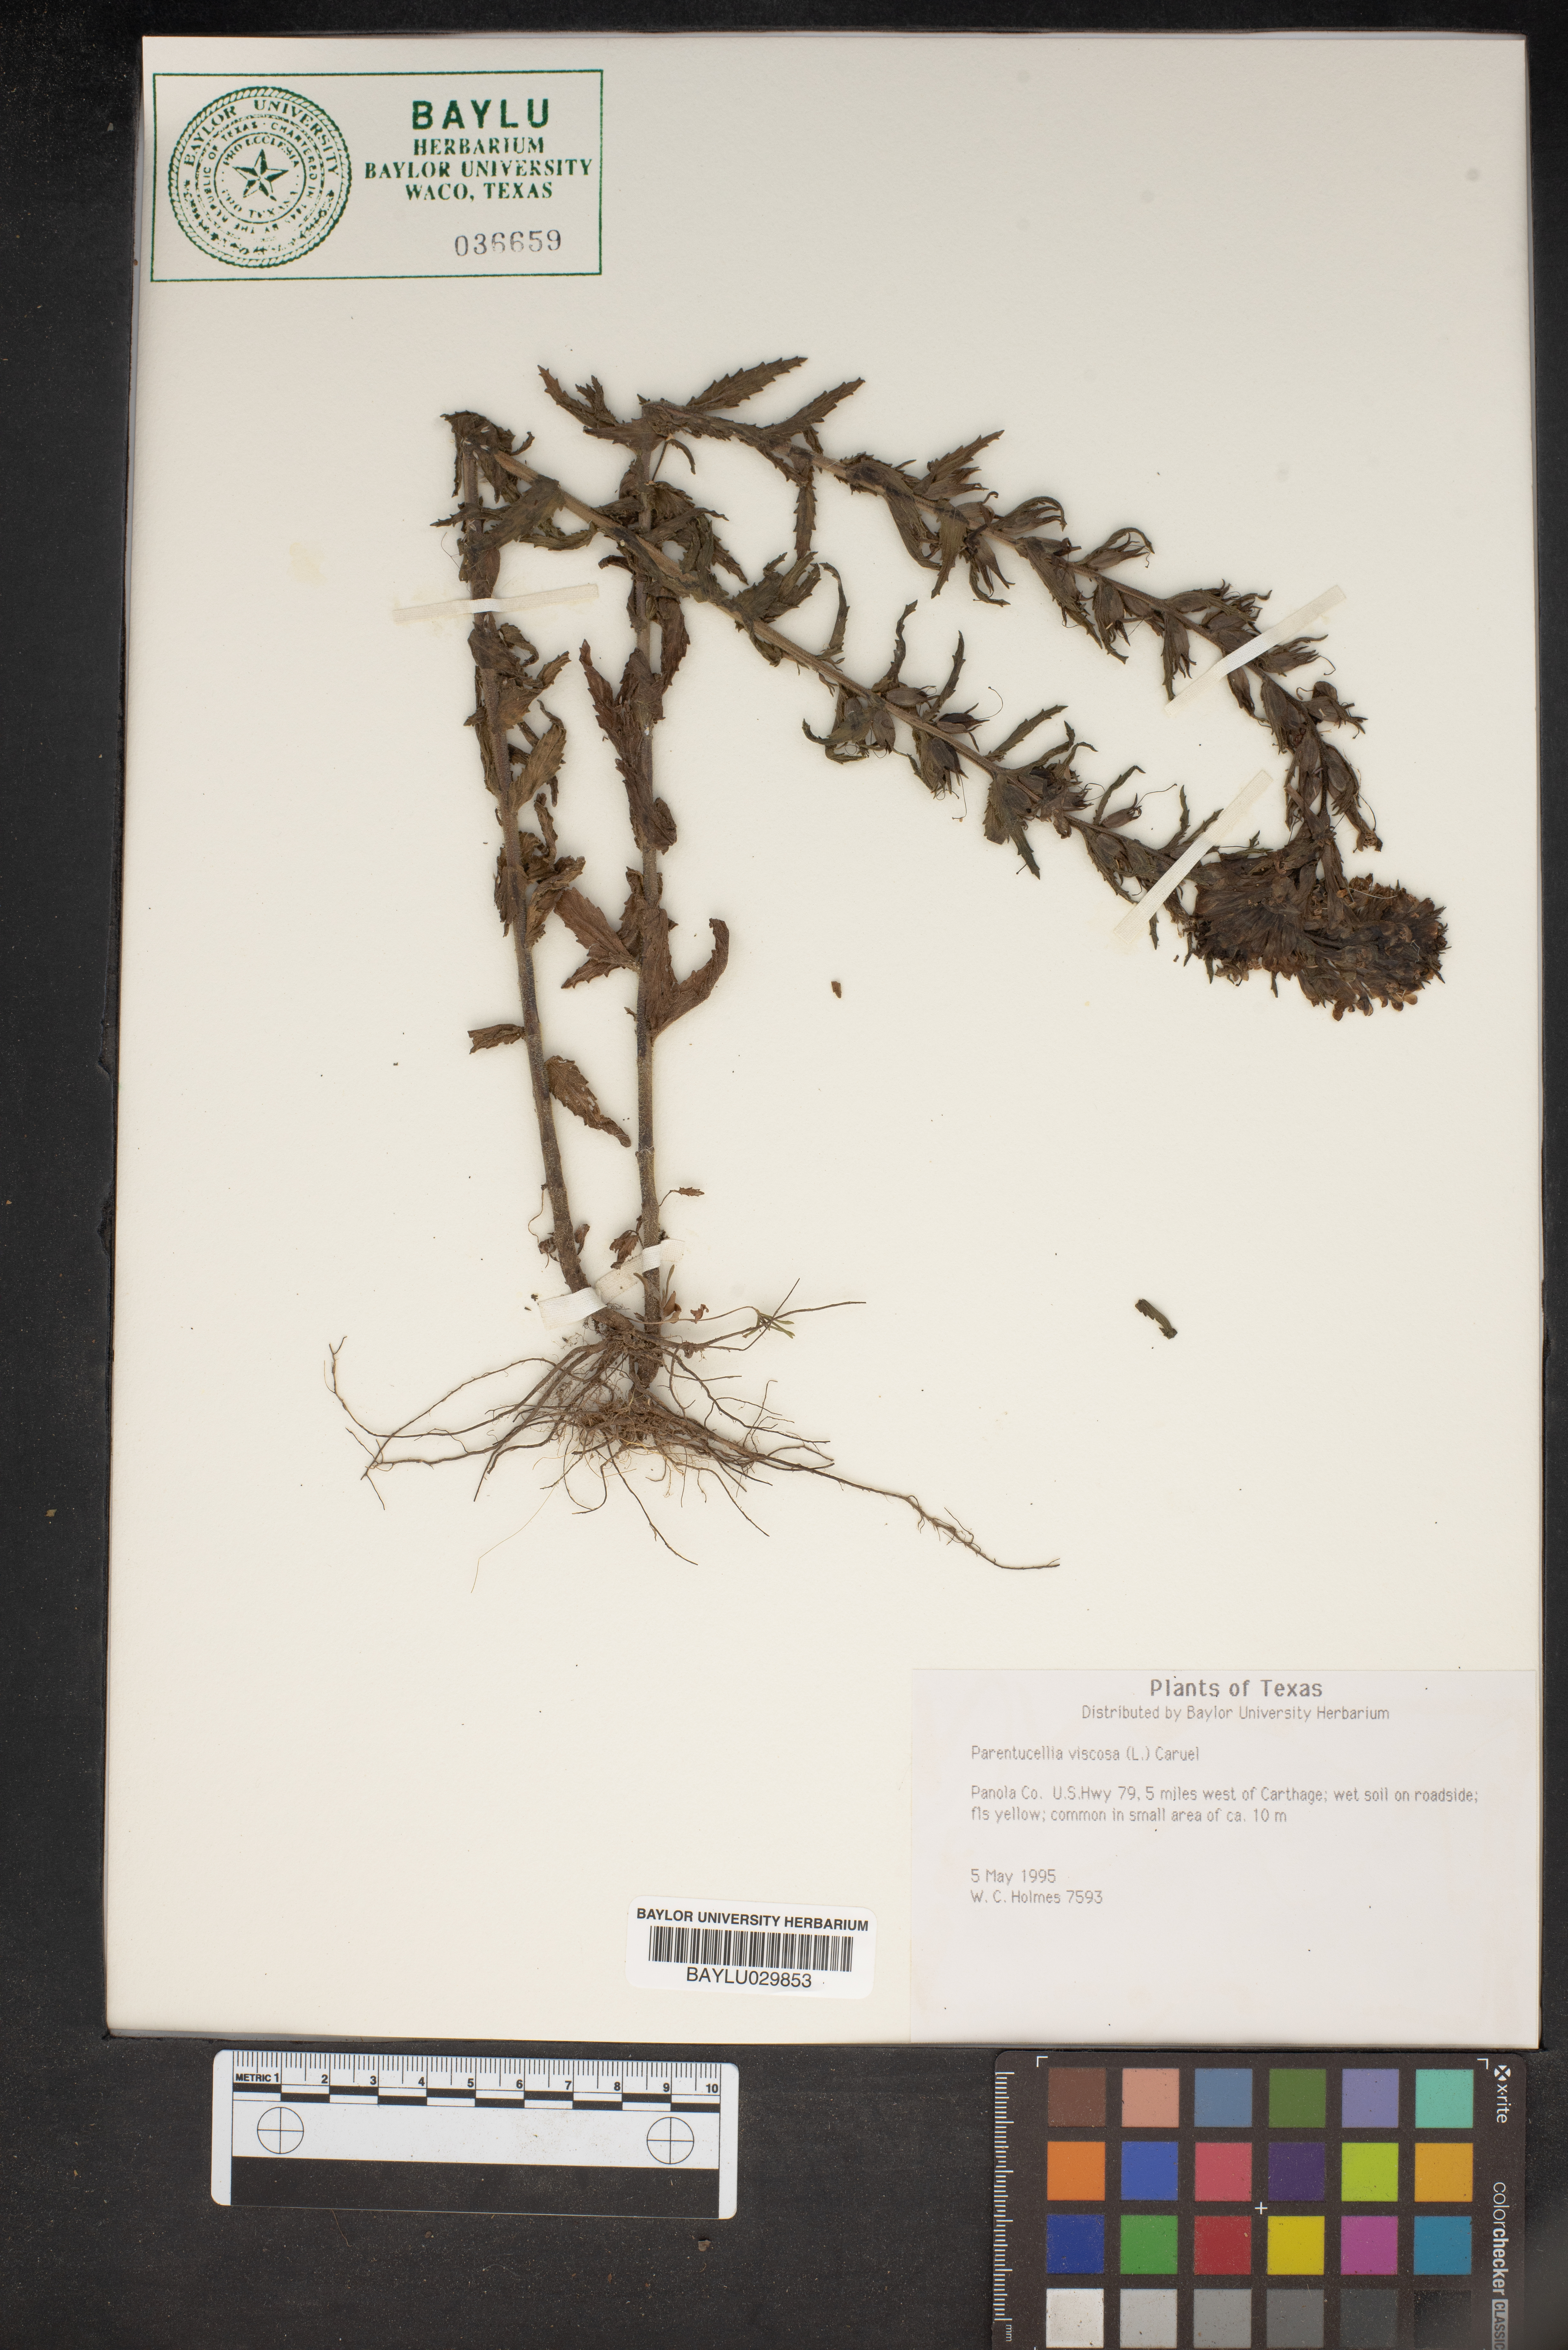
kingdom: Plantae
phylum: Tracheophyta
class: Magnoliopsida
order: Lamiales
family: Orobanchaceae
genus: Bellardia
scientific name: Bellardia viscosa
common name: Sticky parentucellia
